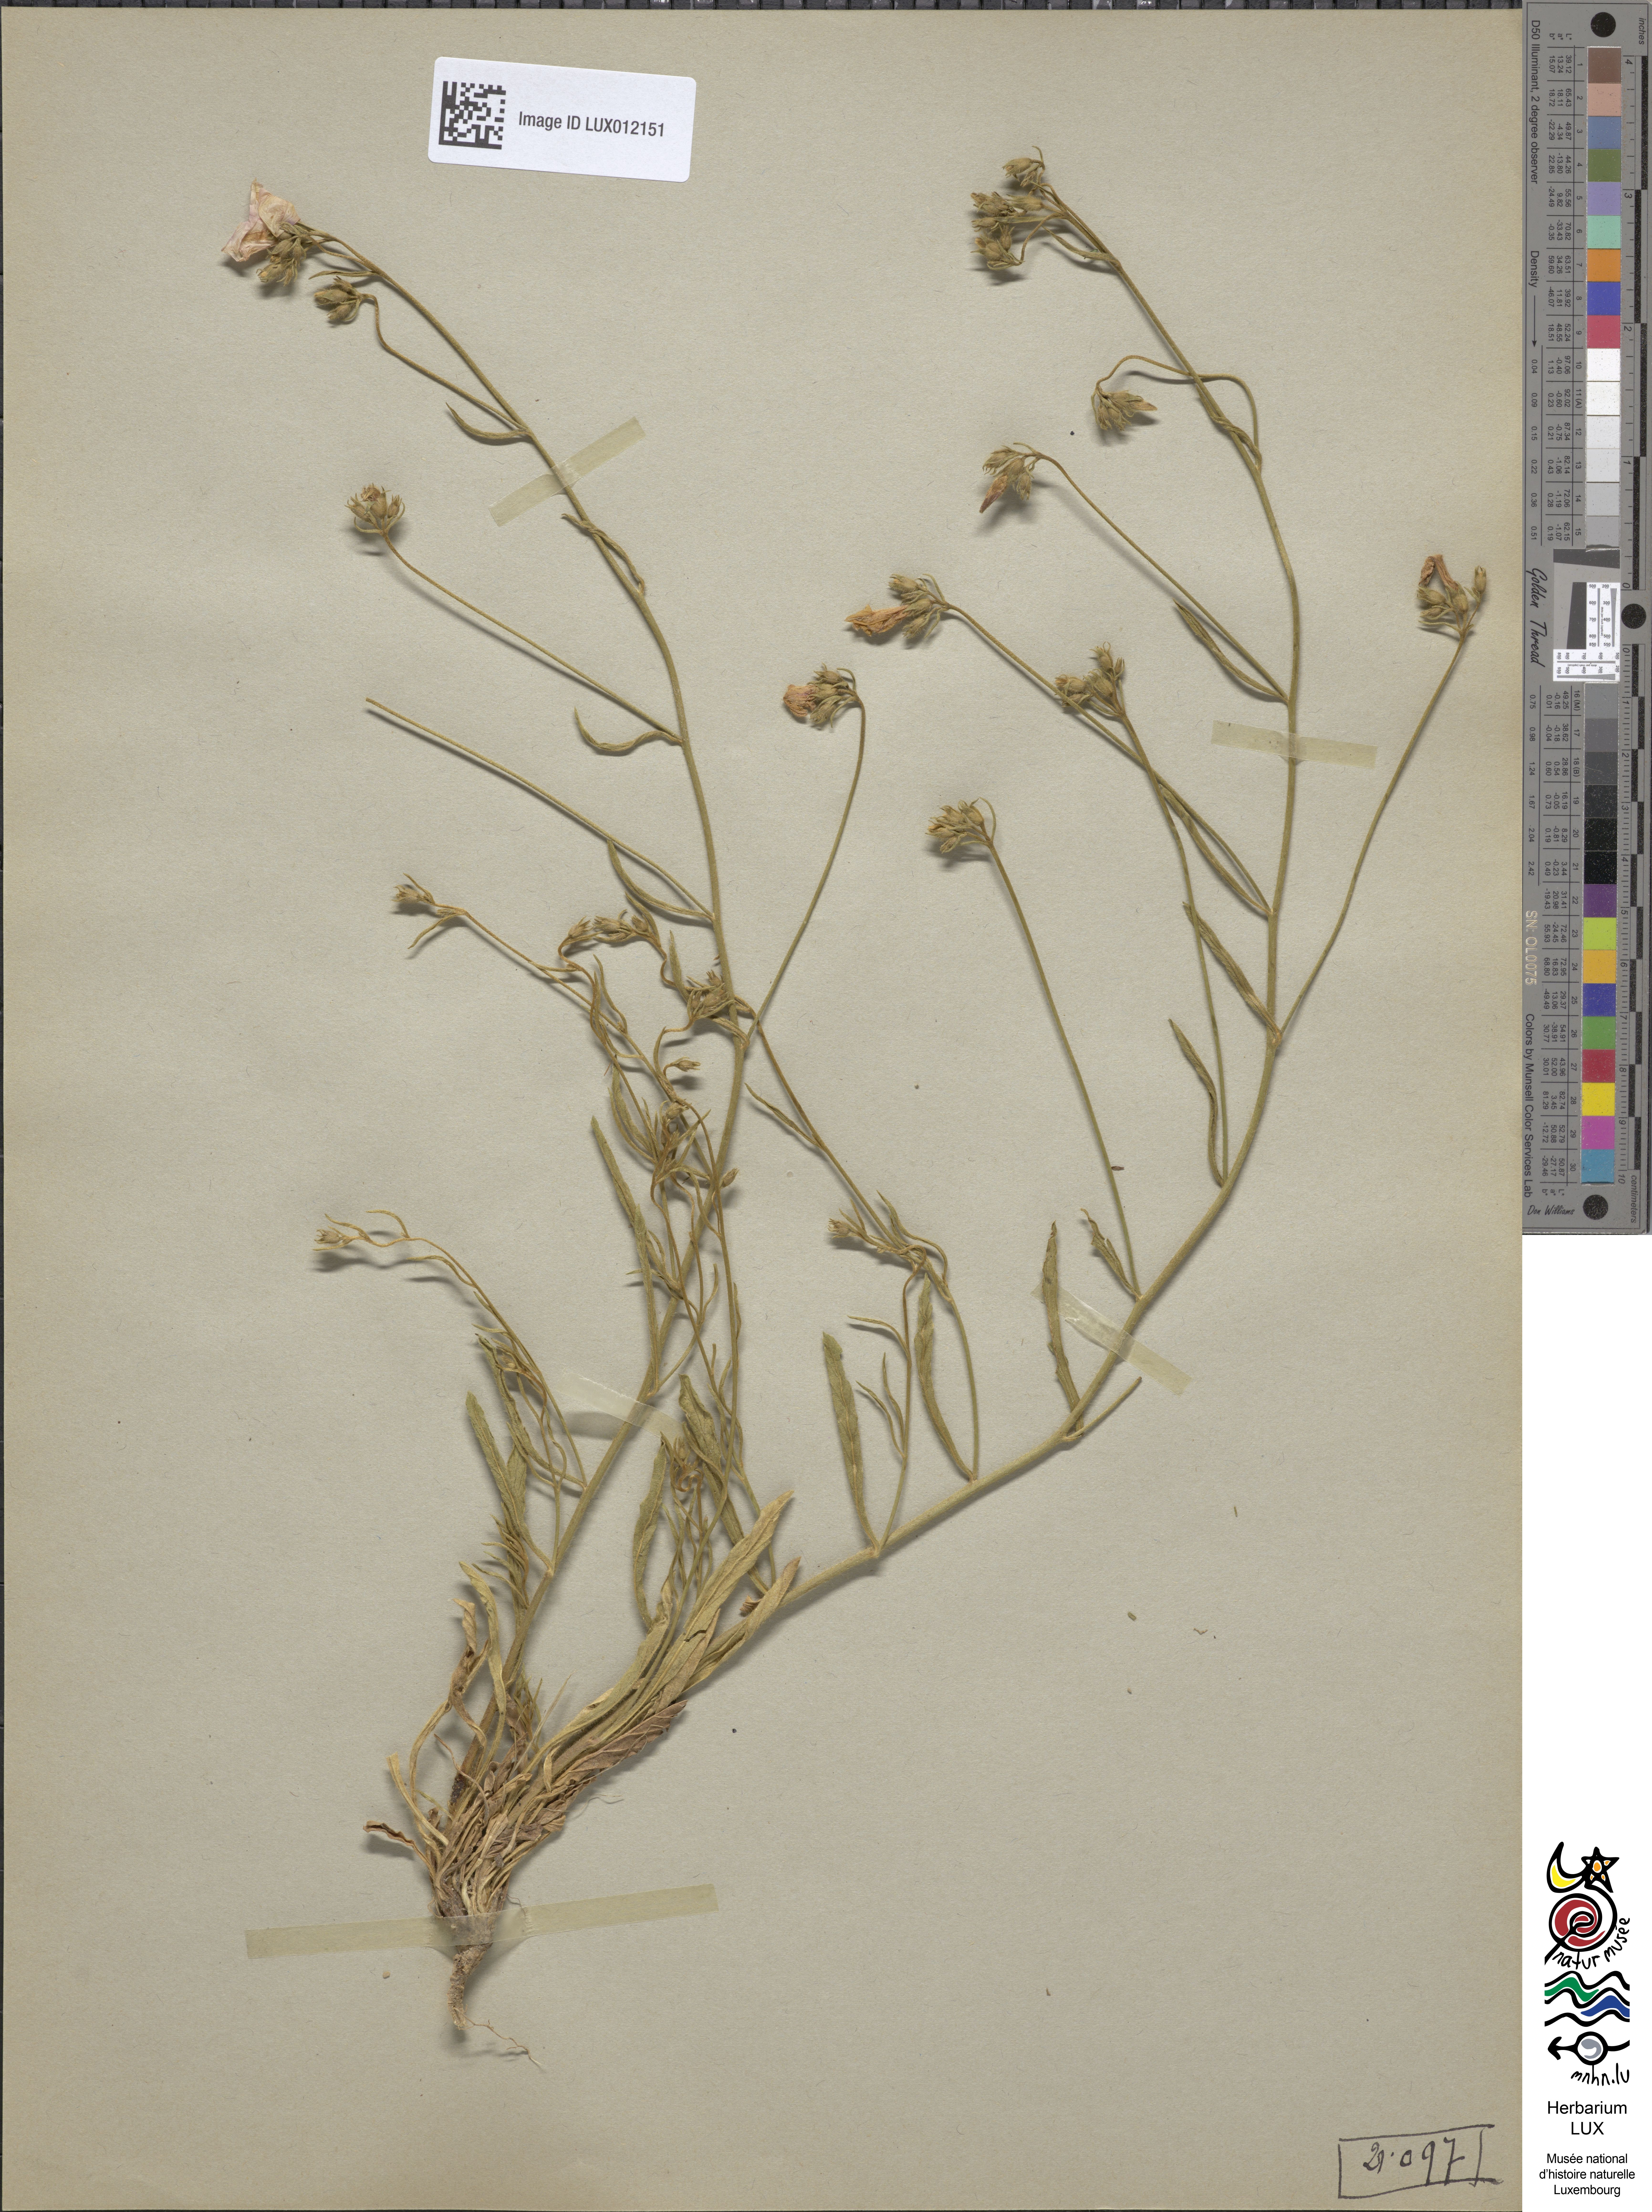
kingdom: Plantae
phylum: Tracheophyta
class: Magnoliopsida
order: Solanales
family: Convolvulaceae
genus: Convolvulus
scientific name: Convolvulus cantabrica
